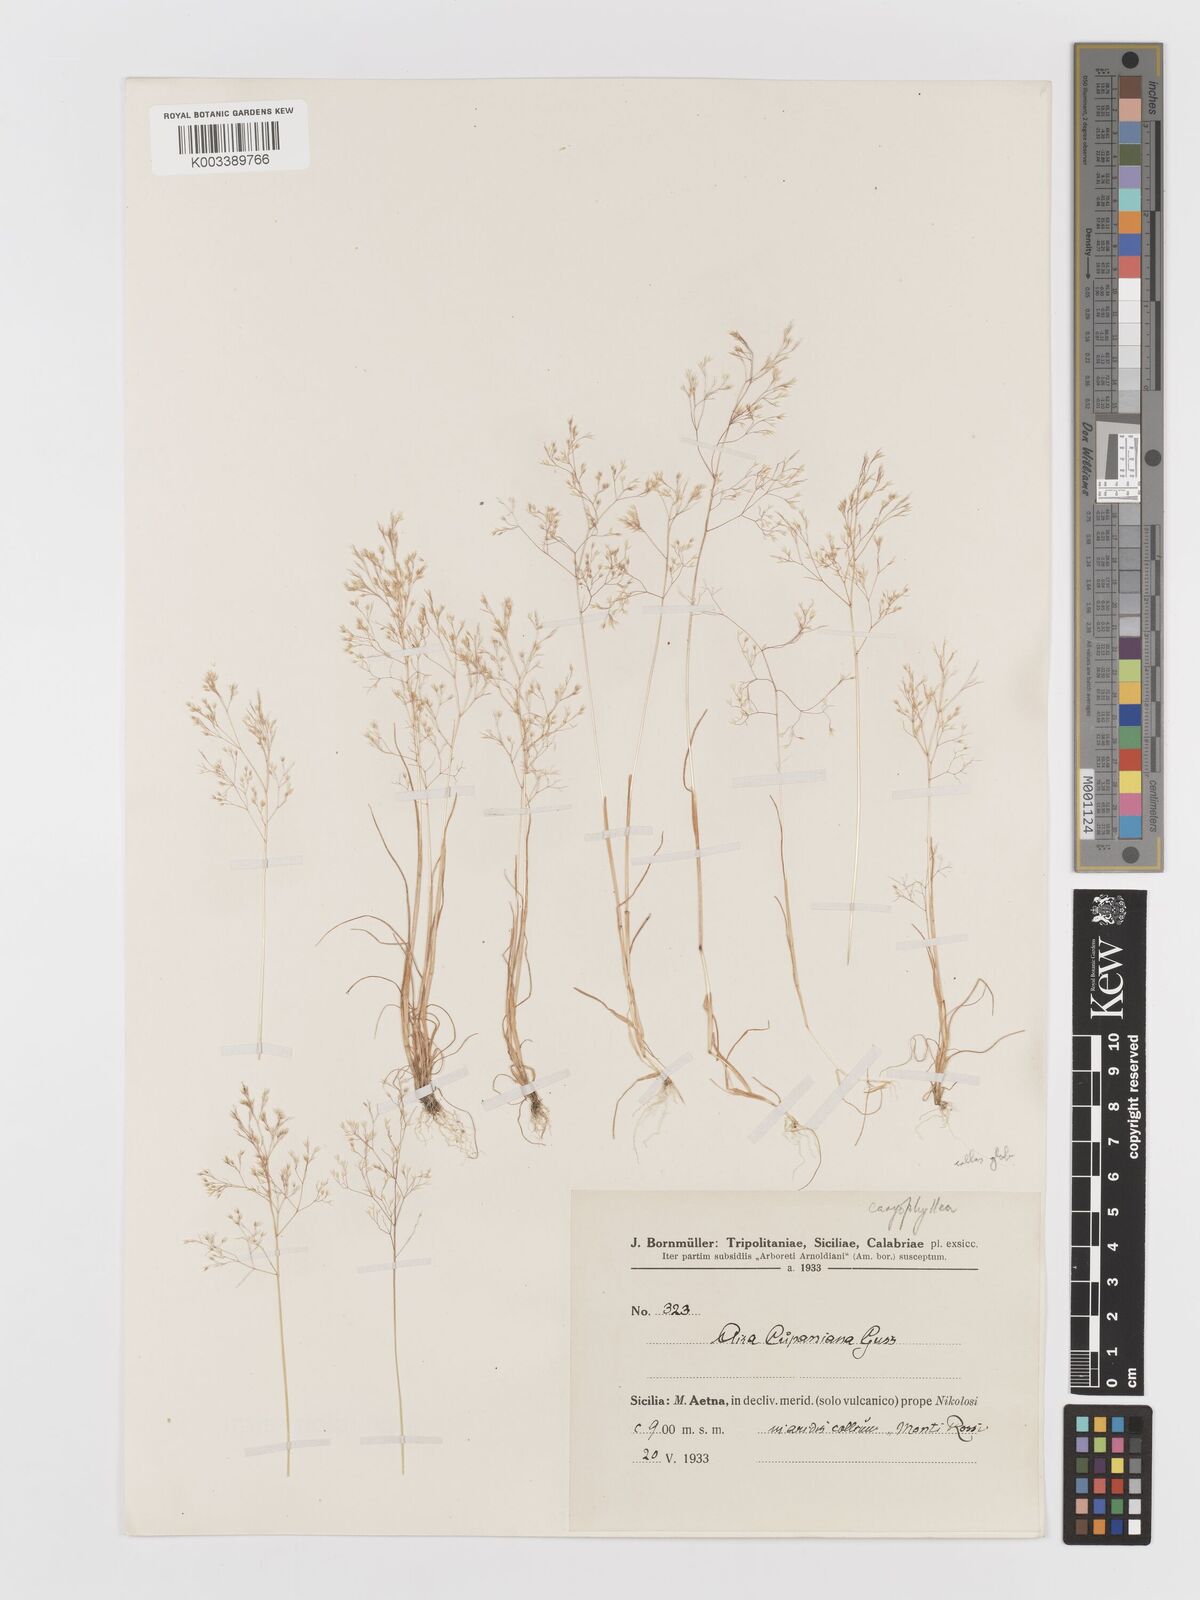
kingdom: Plantae
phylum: Tracheophyta
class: Liliopsida
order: Poales
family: Poaceae
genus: Aira
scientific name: Aira cupaniana
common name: Silver hairgrass
